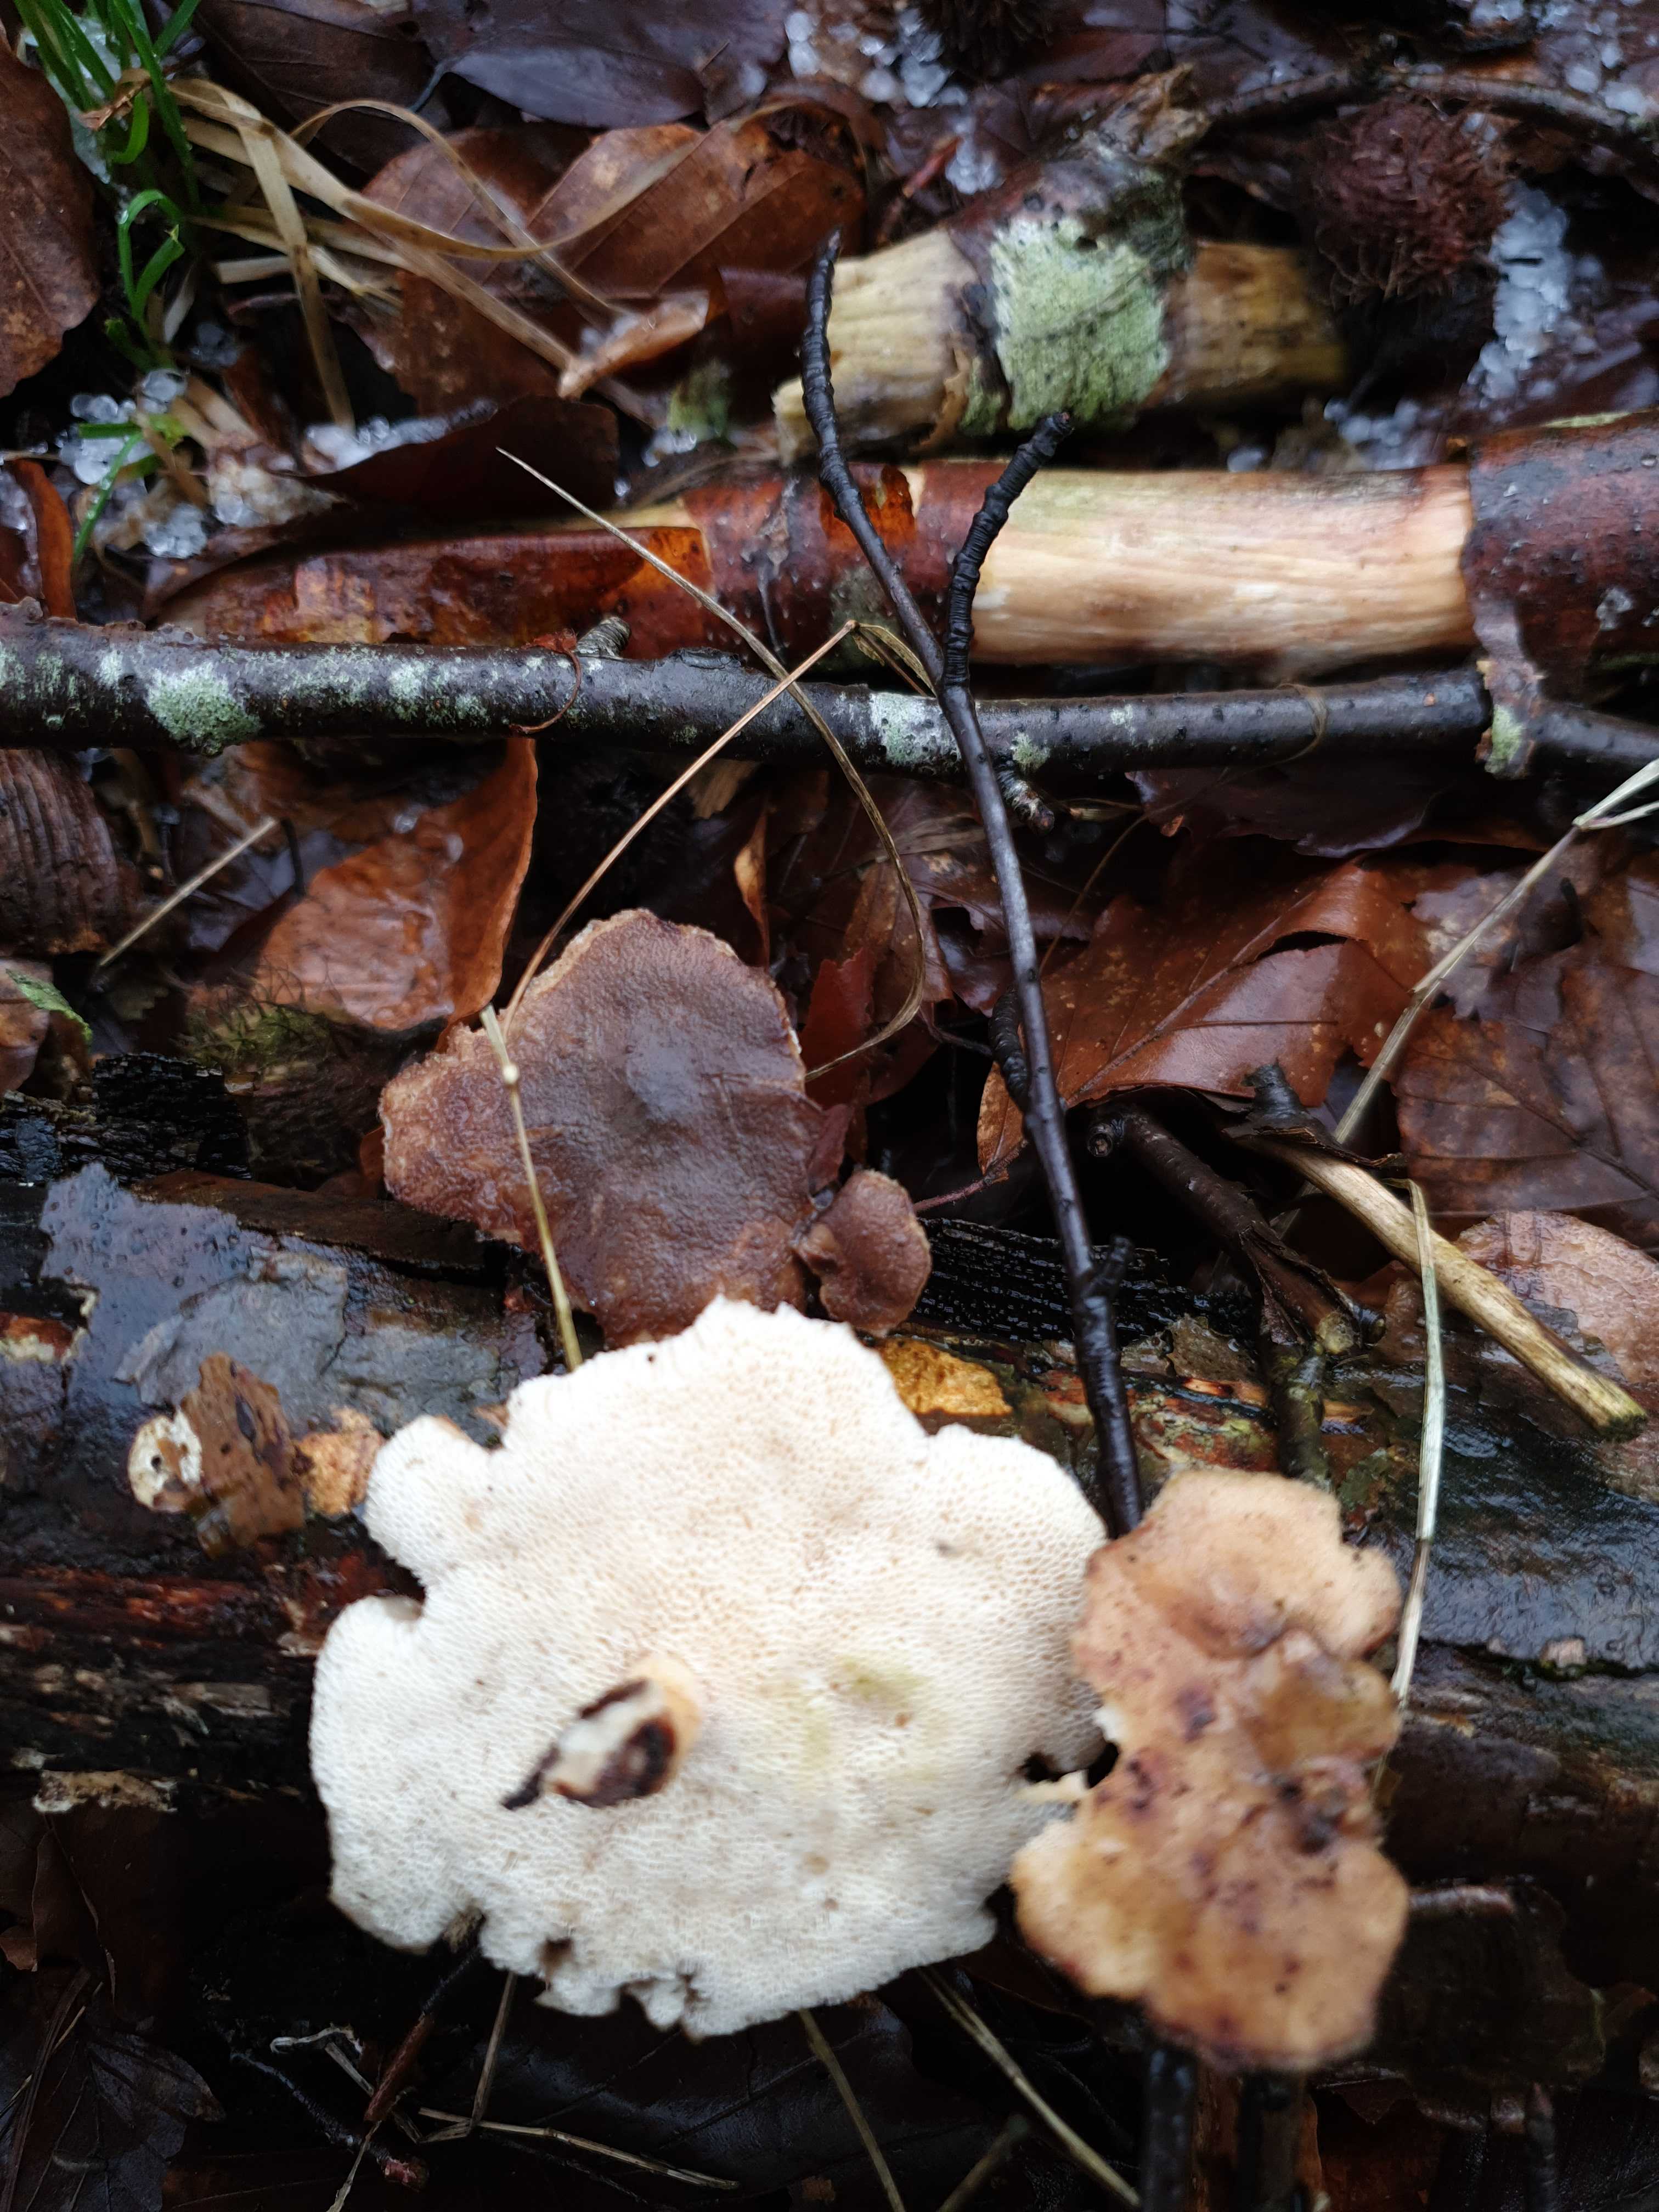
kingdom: Fungi
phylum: Basidiomycota
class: Agaricomycetes
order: Polyporales
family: Polyporaceae
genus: Lentinus
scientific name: Lentinus brumalis
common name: vinter-stilkporesvamp
